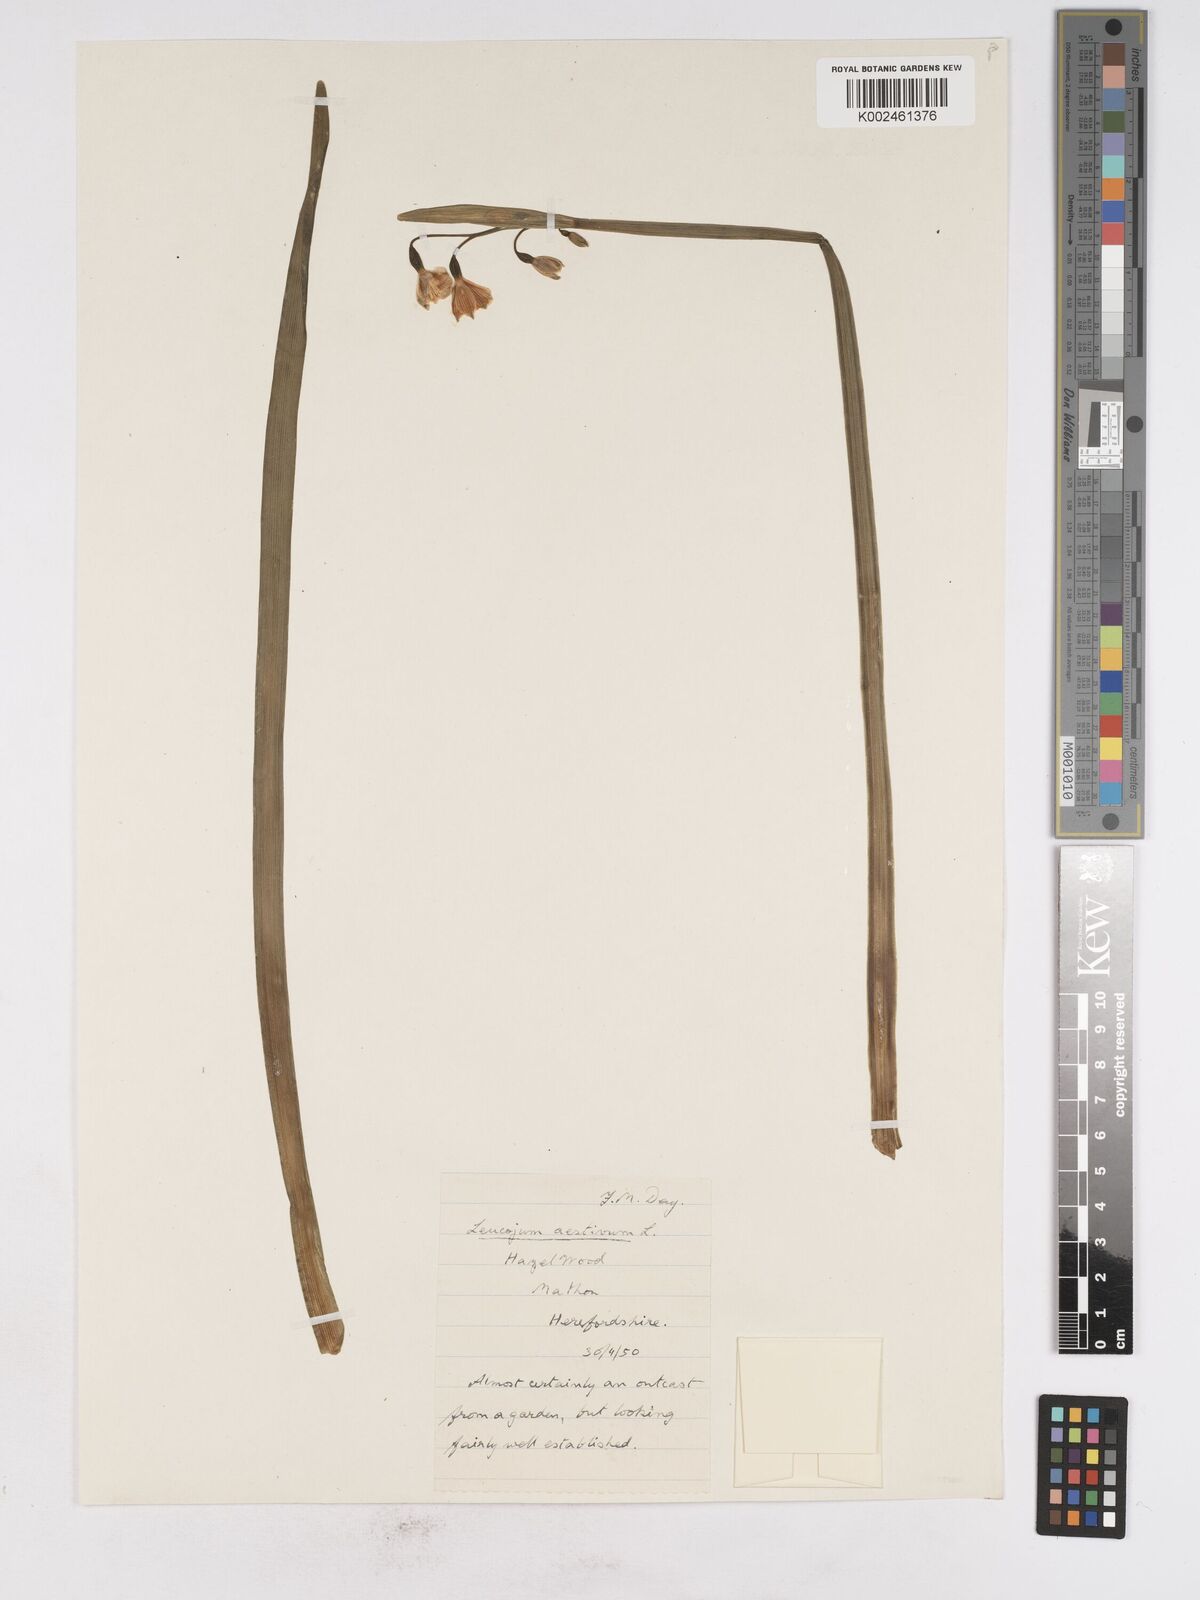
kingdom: Plantae
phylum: Tracheophyta
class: Liliopsida
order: Asparagales
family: Amaryllidaceae
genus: Leucojum
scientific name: Leucojum aestivum
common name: Summer snowflake
